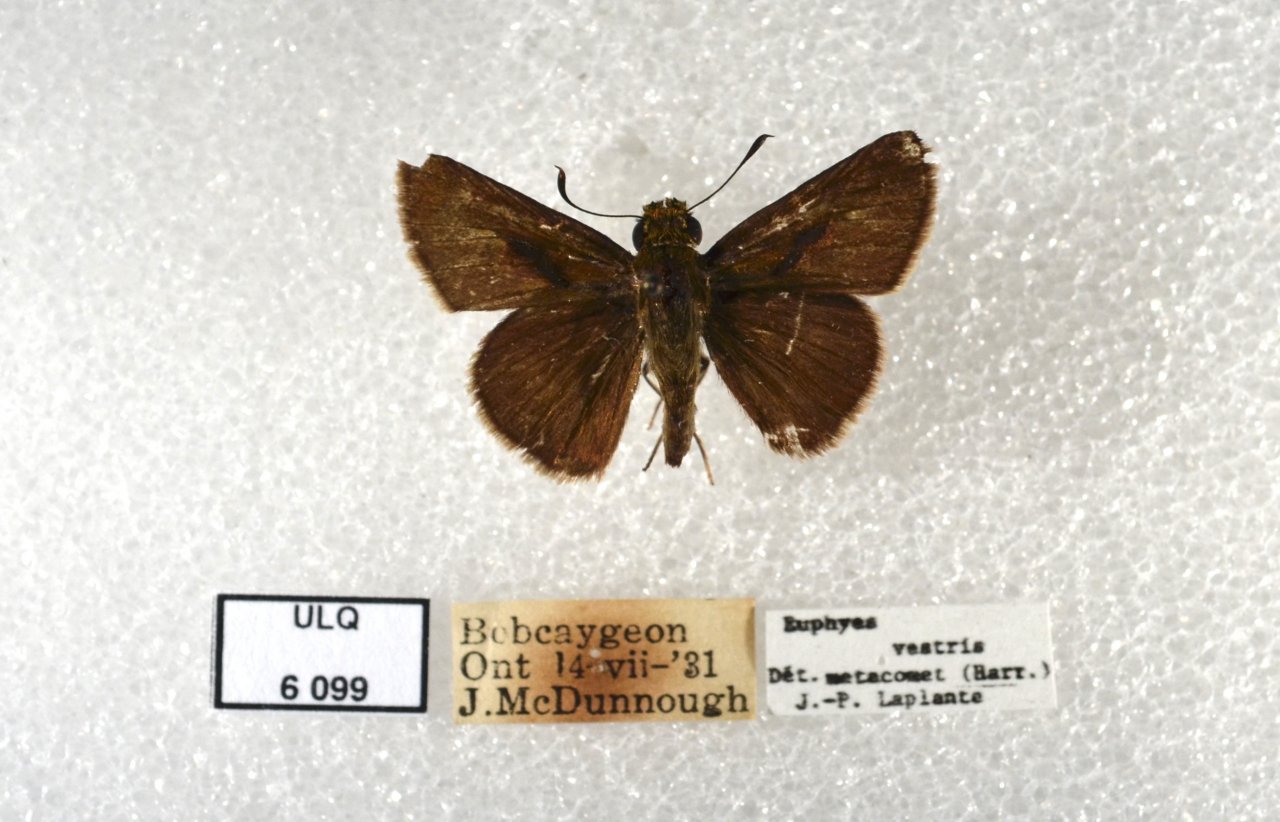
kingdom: Animalia
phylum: Arthropoda
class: Insecta
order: Lepidoptera
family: Hesperiidae
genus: Euphyes
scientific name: Euphyes vestris
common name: Dun Skipper
